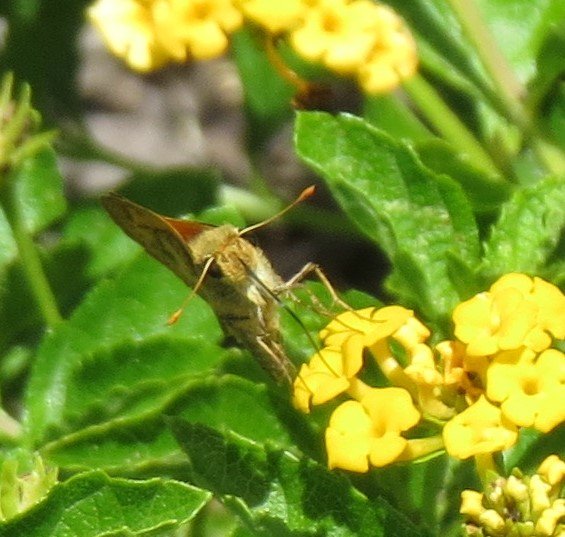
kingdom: Animalia
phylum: Arthropoda
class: Insecta
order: Lepidoptera
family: Hesperiidae
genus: Polites
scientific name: Polites vibex
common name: Whirlabout
